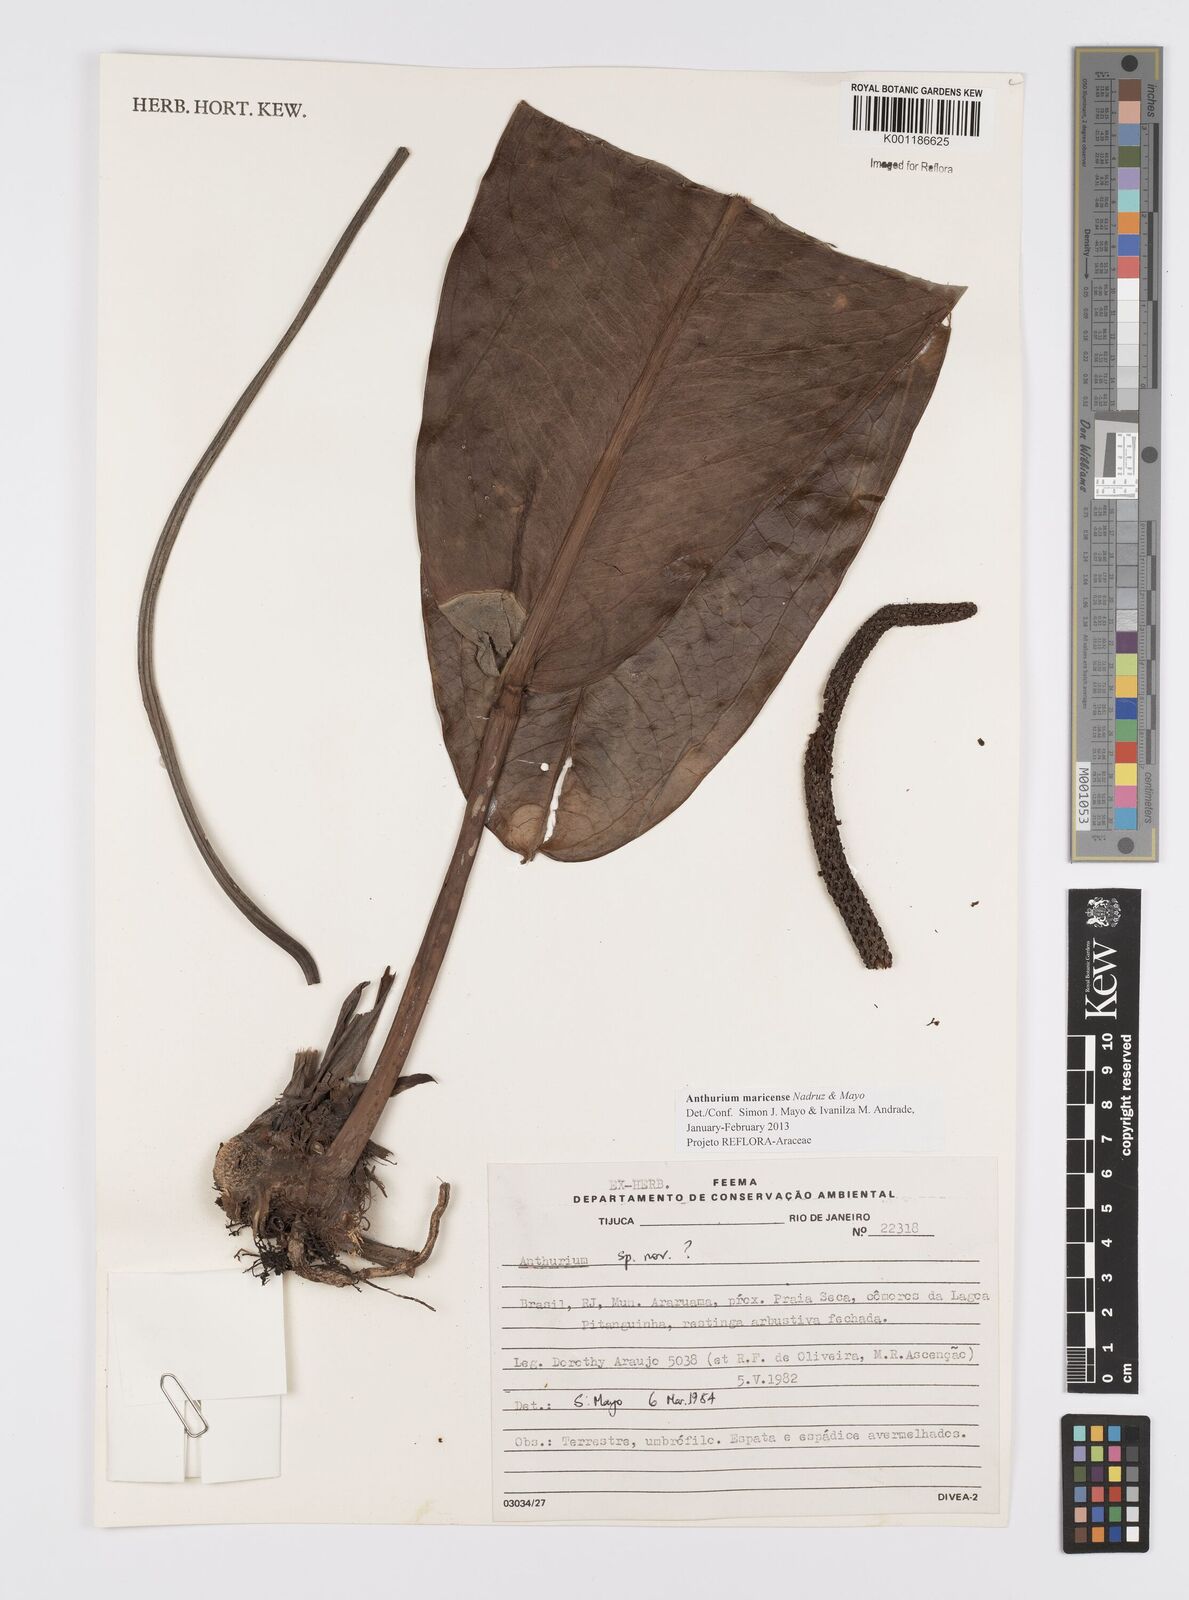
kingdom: Plantae
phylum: Tracheophyta
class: Liliopsida
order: Alismatales
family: Araceae
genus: Anthurium
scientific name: Anthurium maricense
